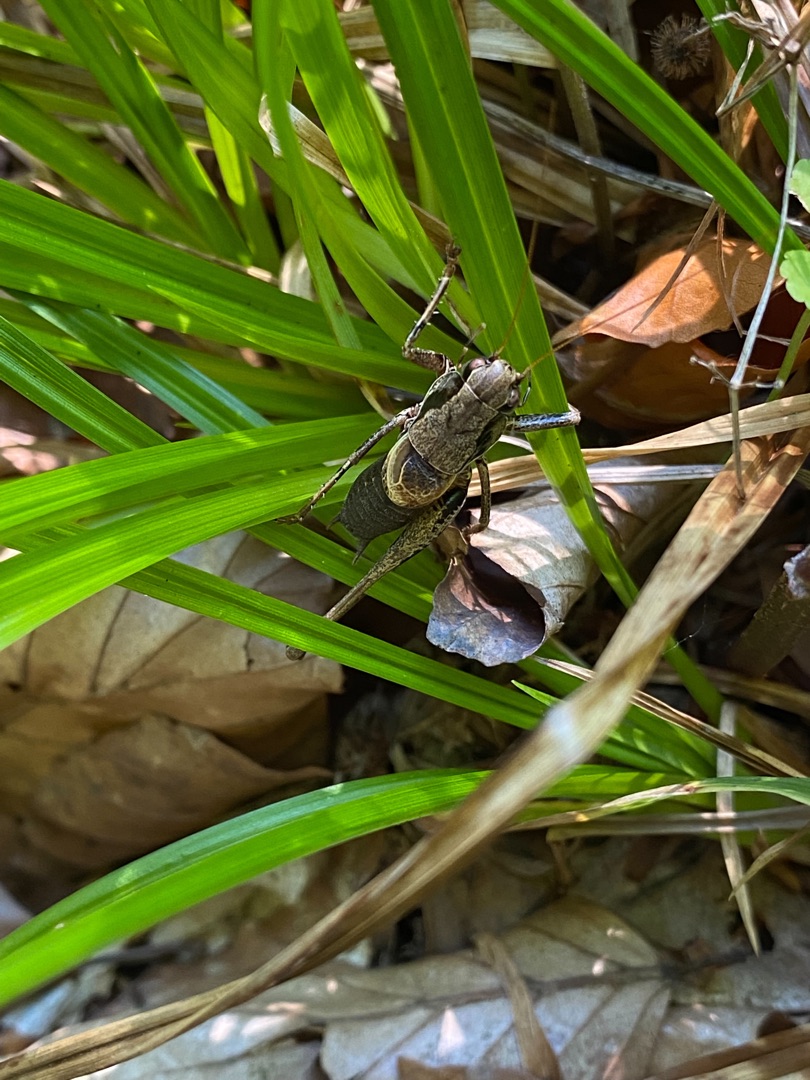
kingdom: Animalia
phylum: Arthropoda
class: Insecta
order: Orthoptera
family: Tettigoniidae
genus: Pholidoptera
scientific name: Pholidoptera griseoaptera
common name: Buskgræshoppe
